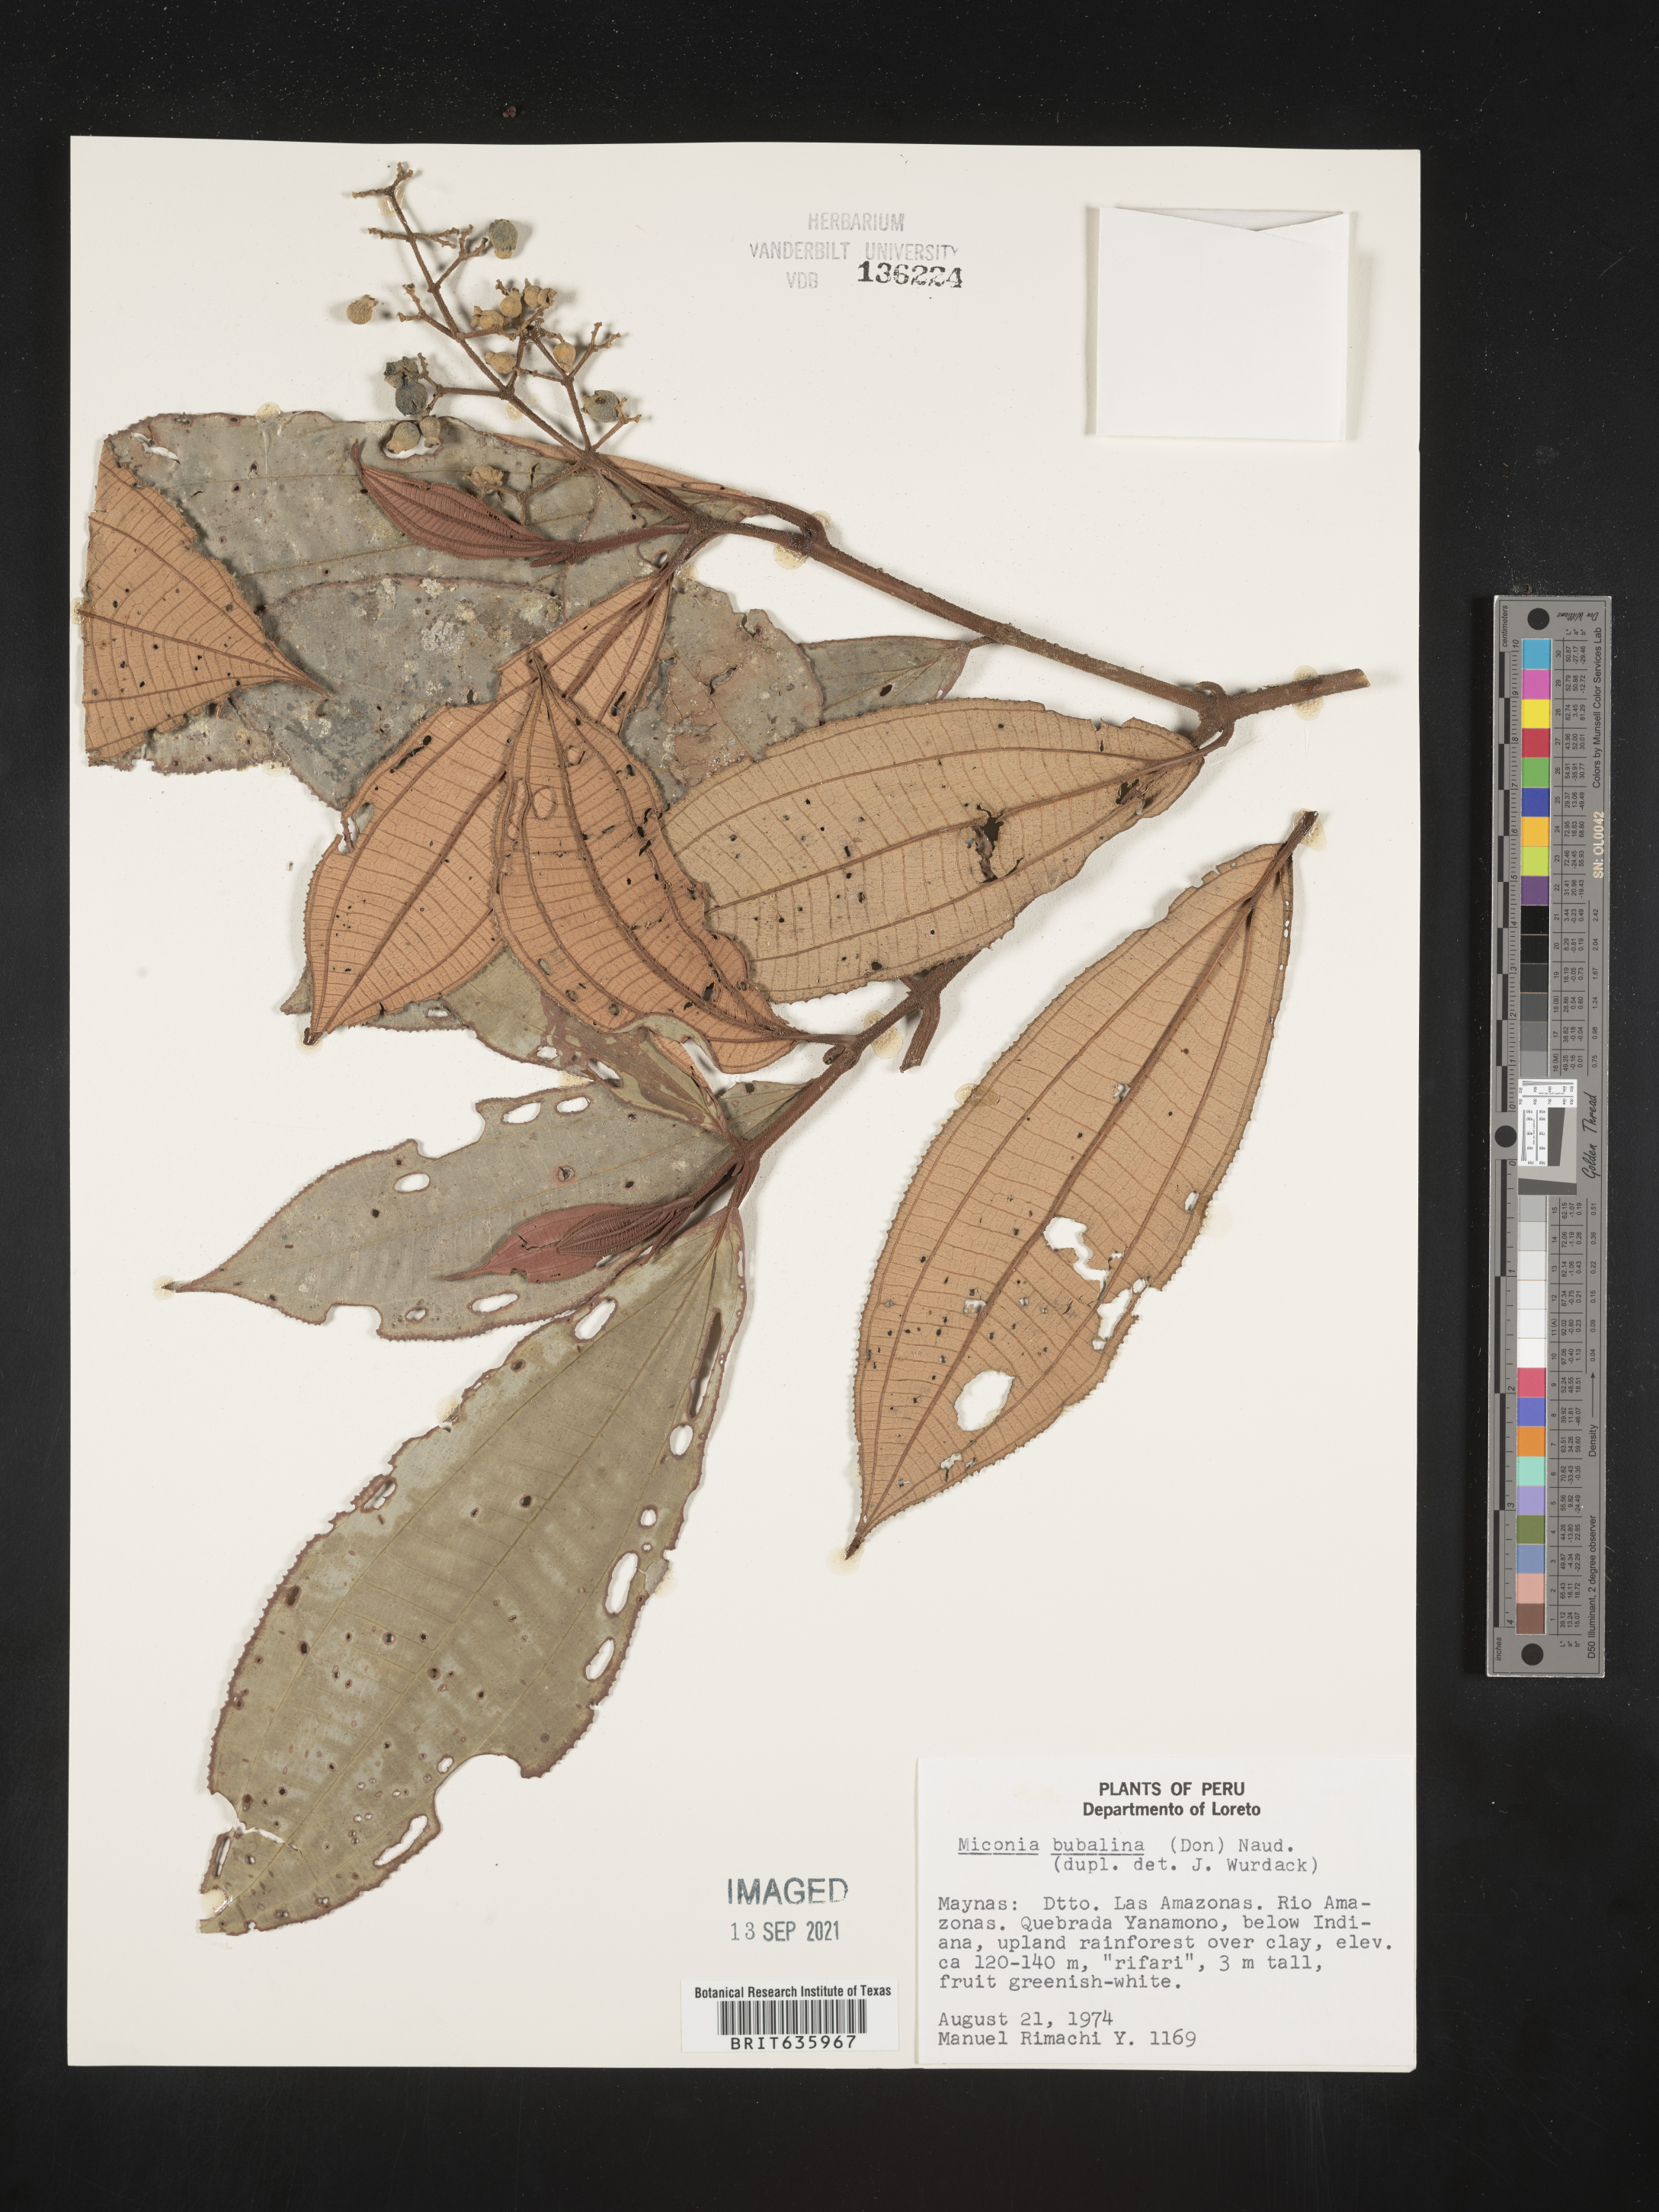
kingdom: Plantae
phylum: Tracheophyta
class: Magnoliopsida
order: Myrtales
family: Melastomataceae
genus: Miconia
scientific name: Miconia
